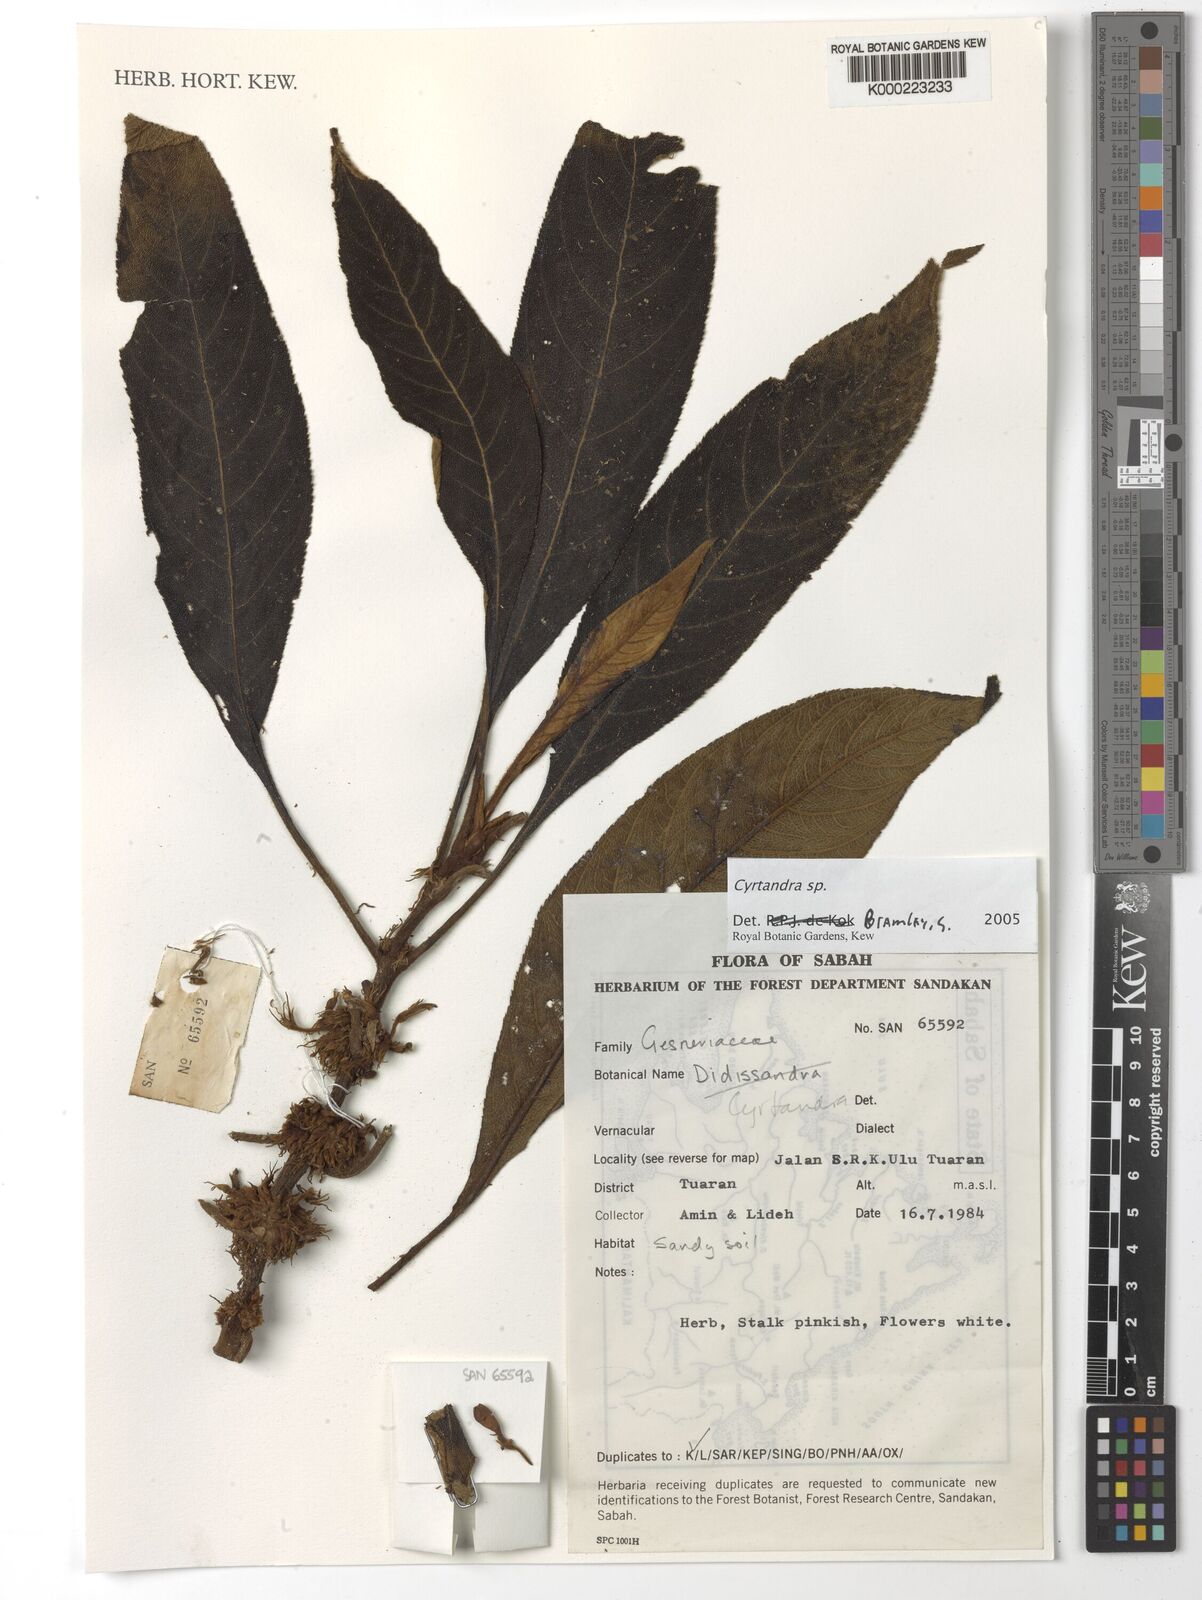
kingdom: Plantae
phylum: Tracheophyta
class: Magnoliopsida
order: Lamiales
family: Gesneriaceae
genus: Cyrtandra
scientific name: Cyrtandra
